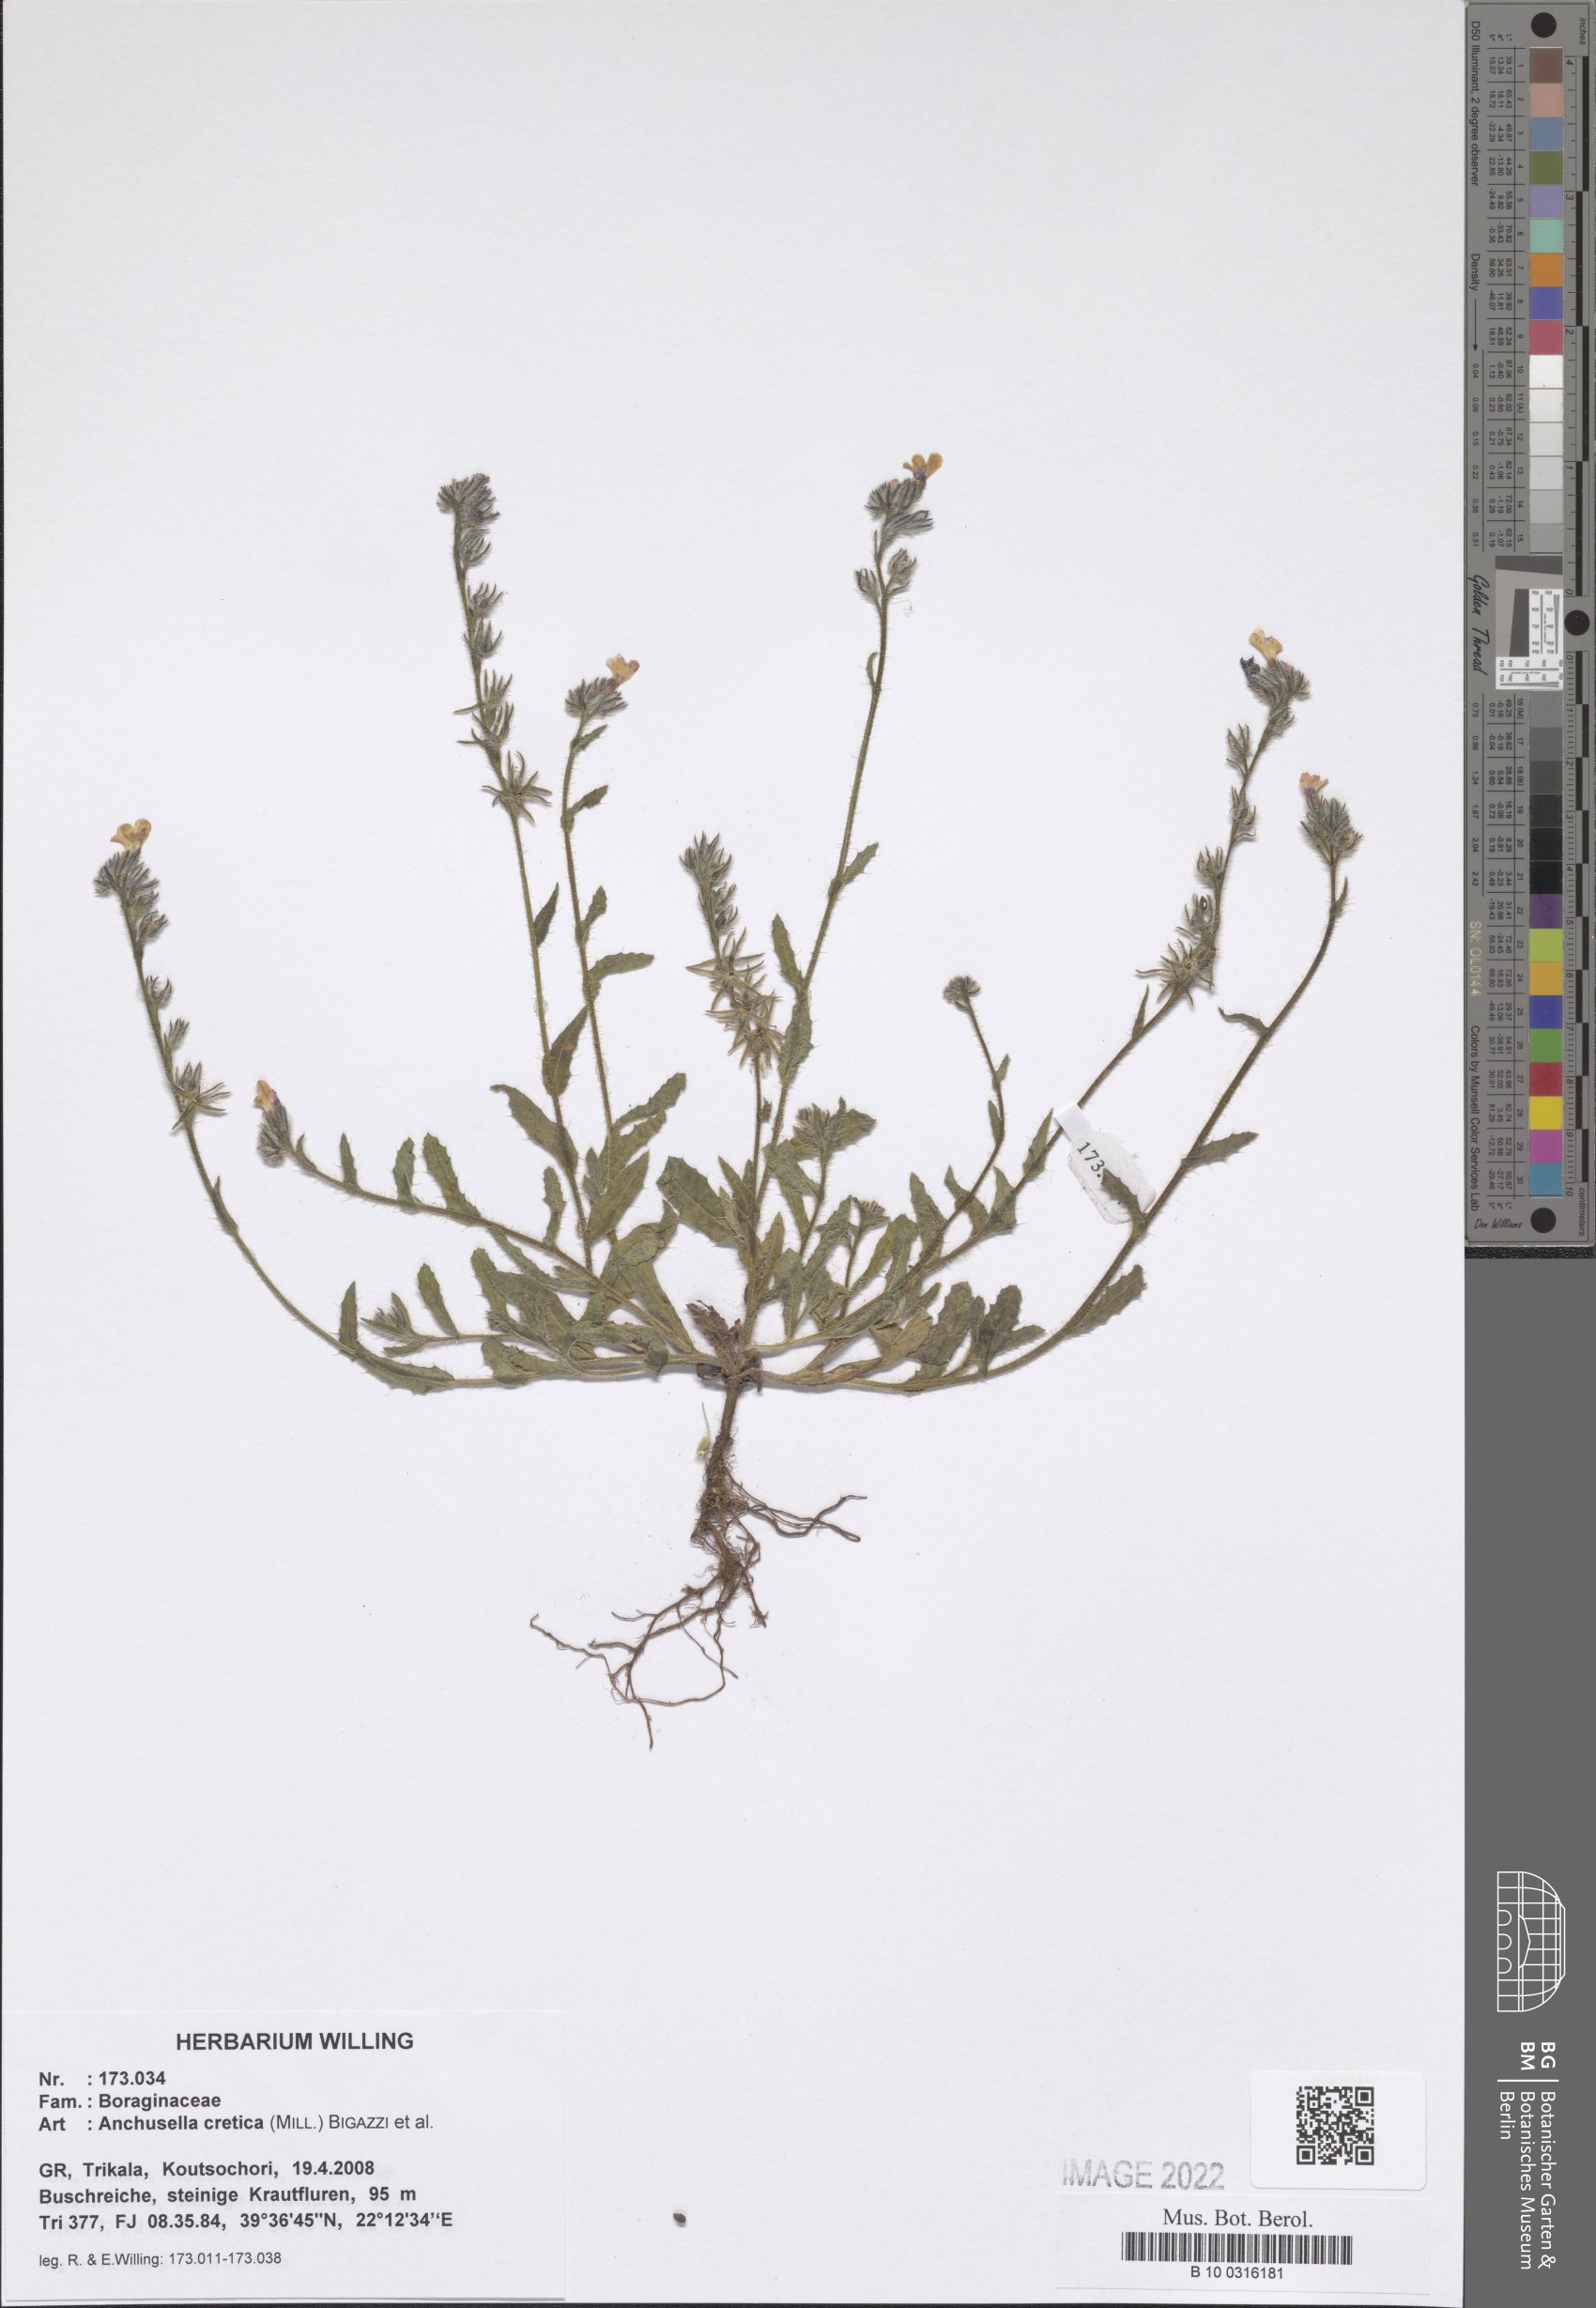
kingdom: Plantae
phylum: Tracheophyta
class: Magnoliopsida
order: Boraginales
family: Boraginaceae
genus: Anchusella
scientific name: Anchusella cretica
